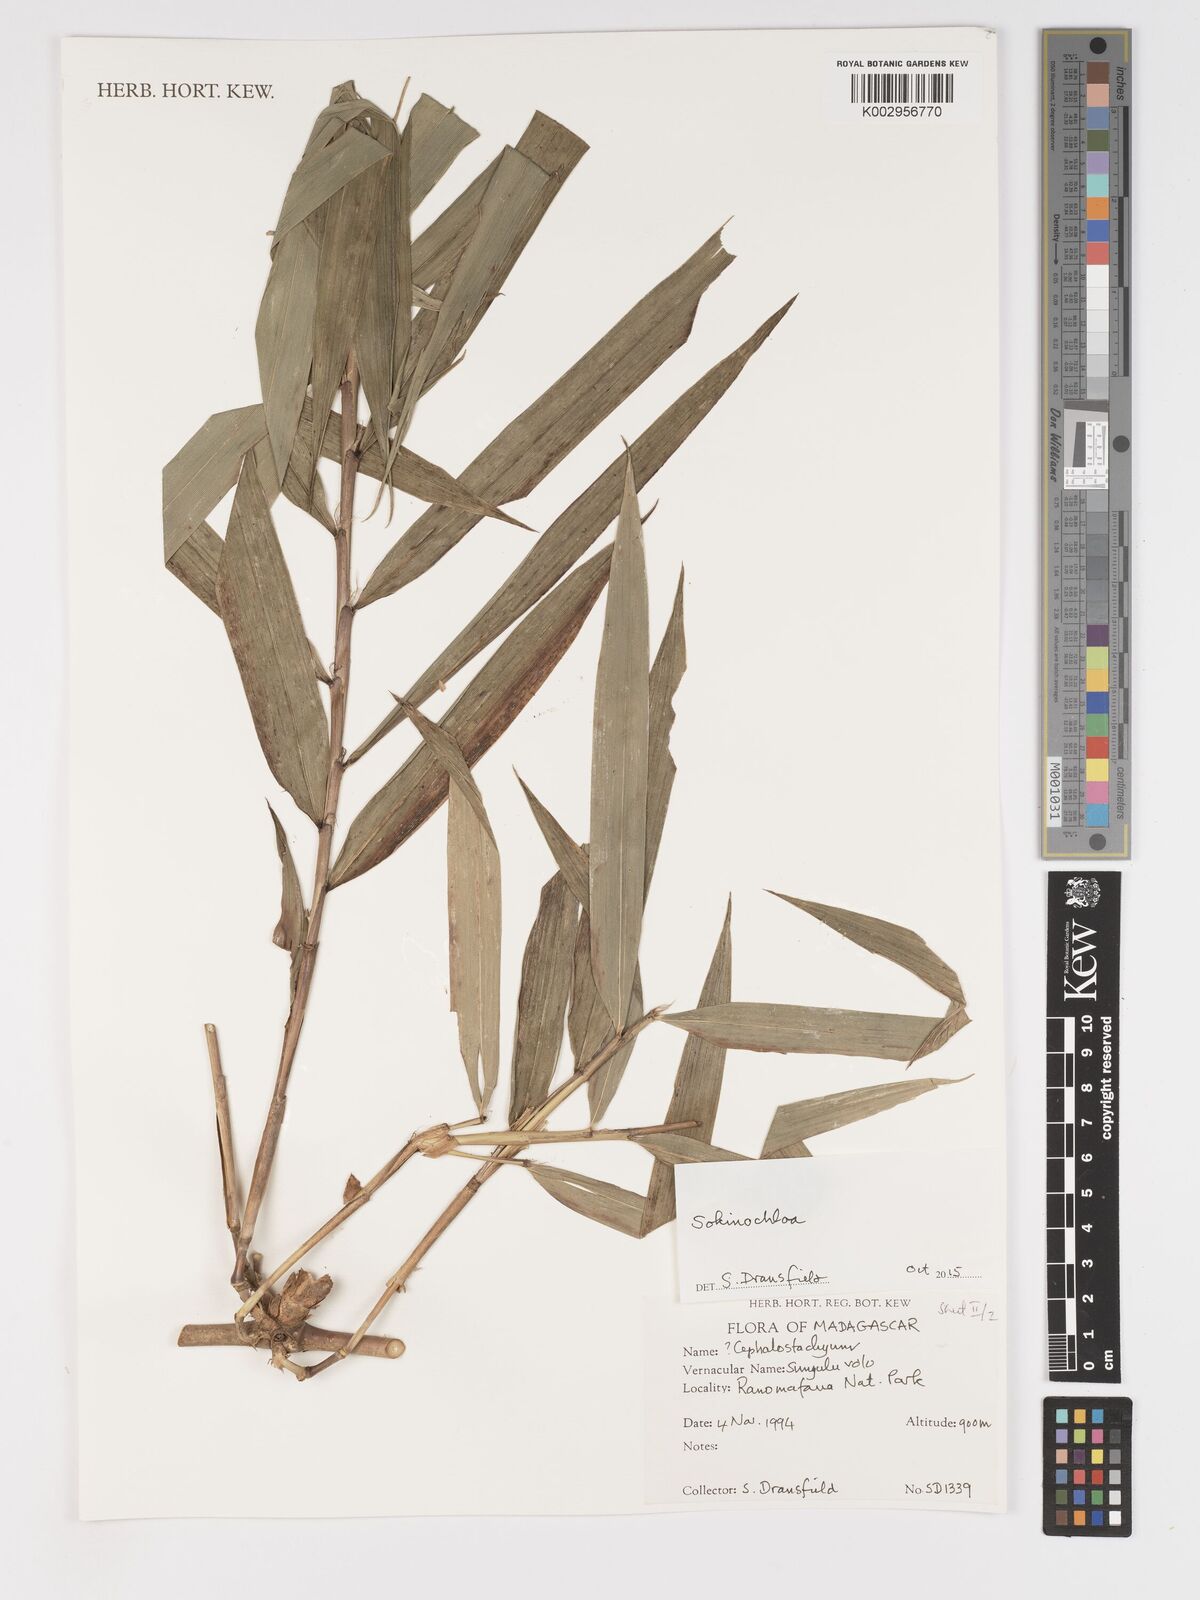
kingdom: Plantae
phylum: Tracheophyta
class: Liliopsida
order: Poales
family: Poaceae
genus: Sokinochloa
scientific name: Sokinochloa
